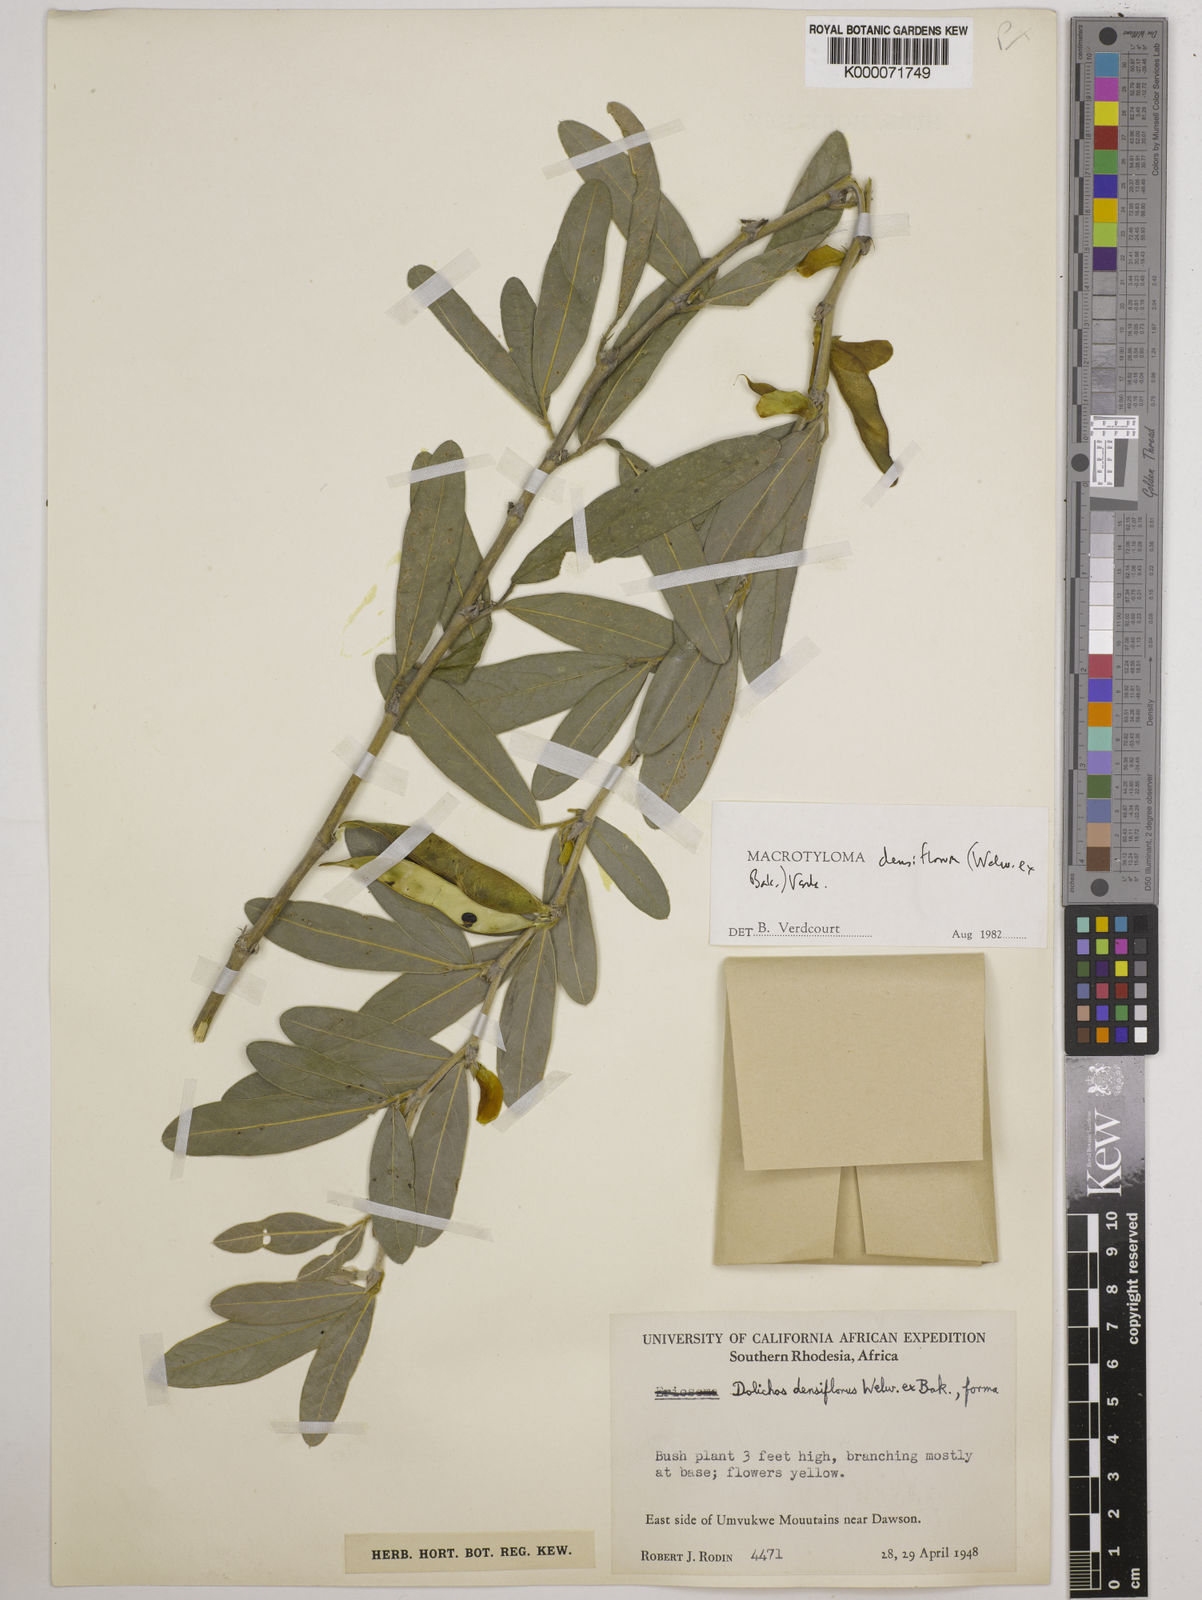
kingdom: Plantae
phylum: Tracheophyta
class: Magnoliopsida
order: Fabales
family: Fabaceae
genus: Macrotyloma
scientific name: Macrotyloma densiflorum
